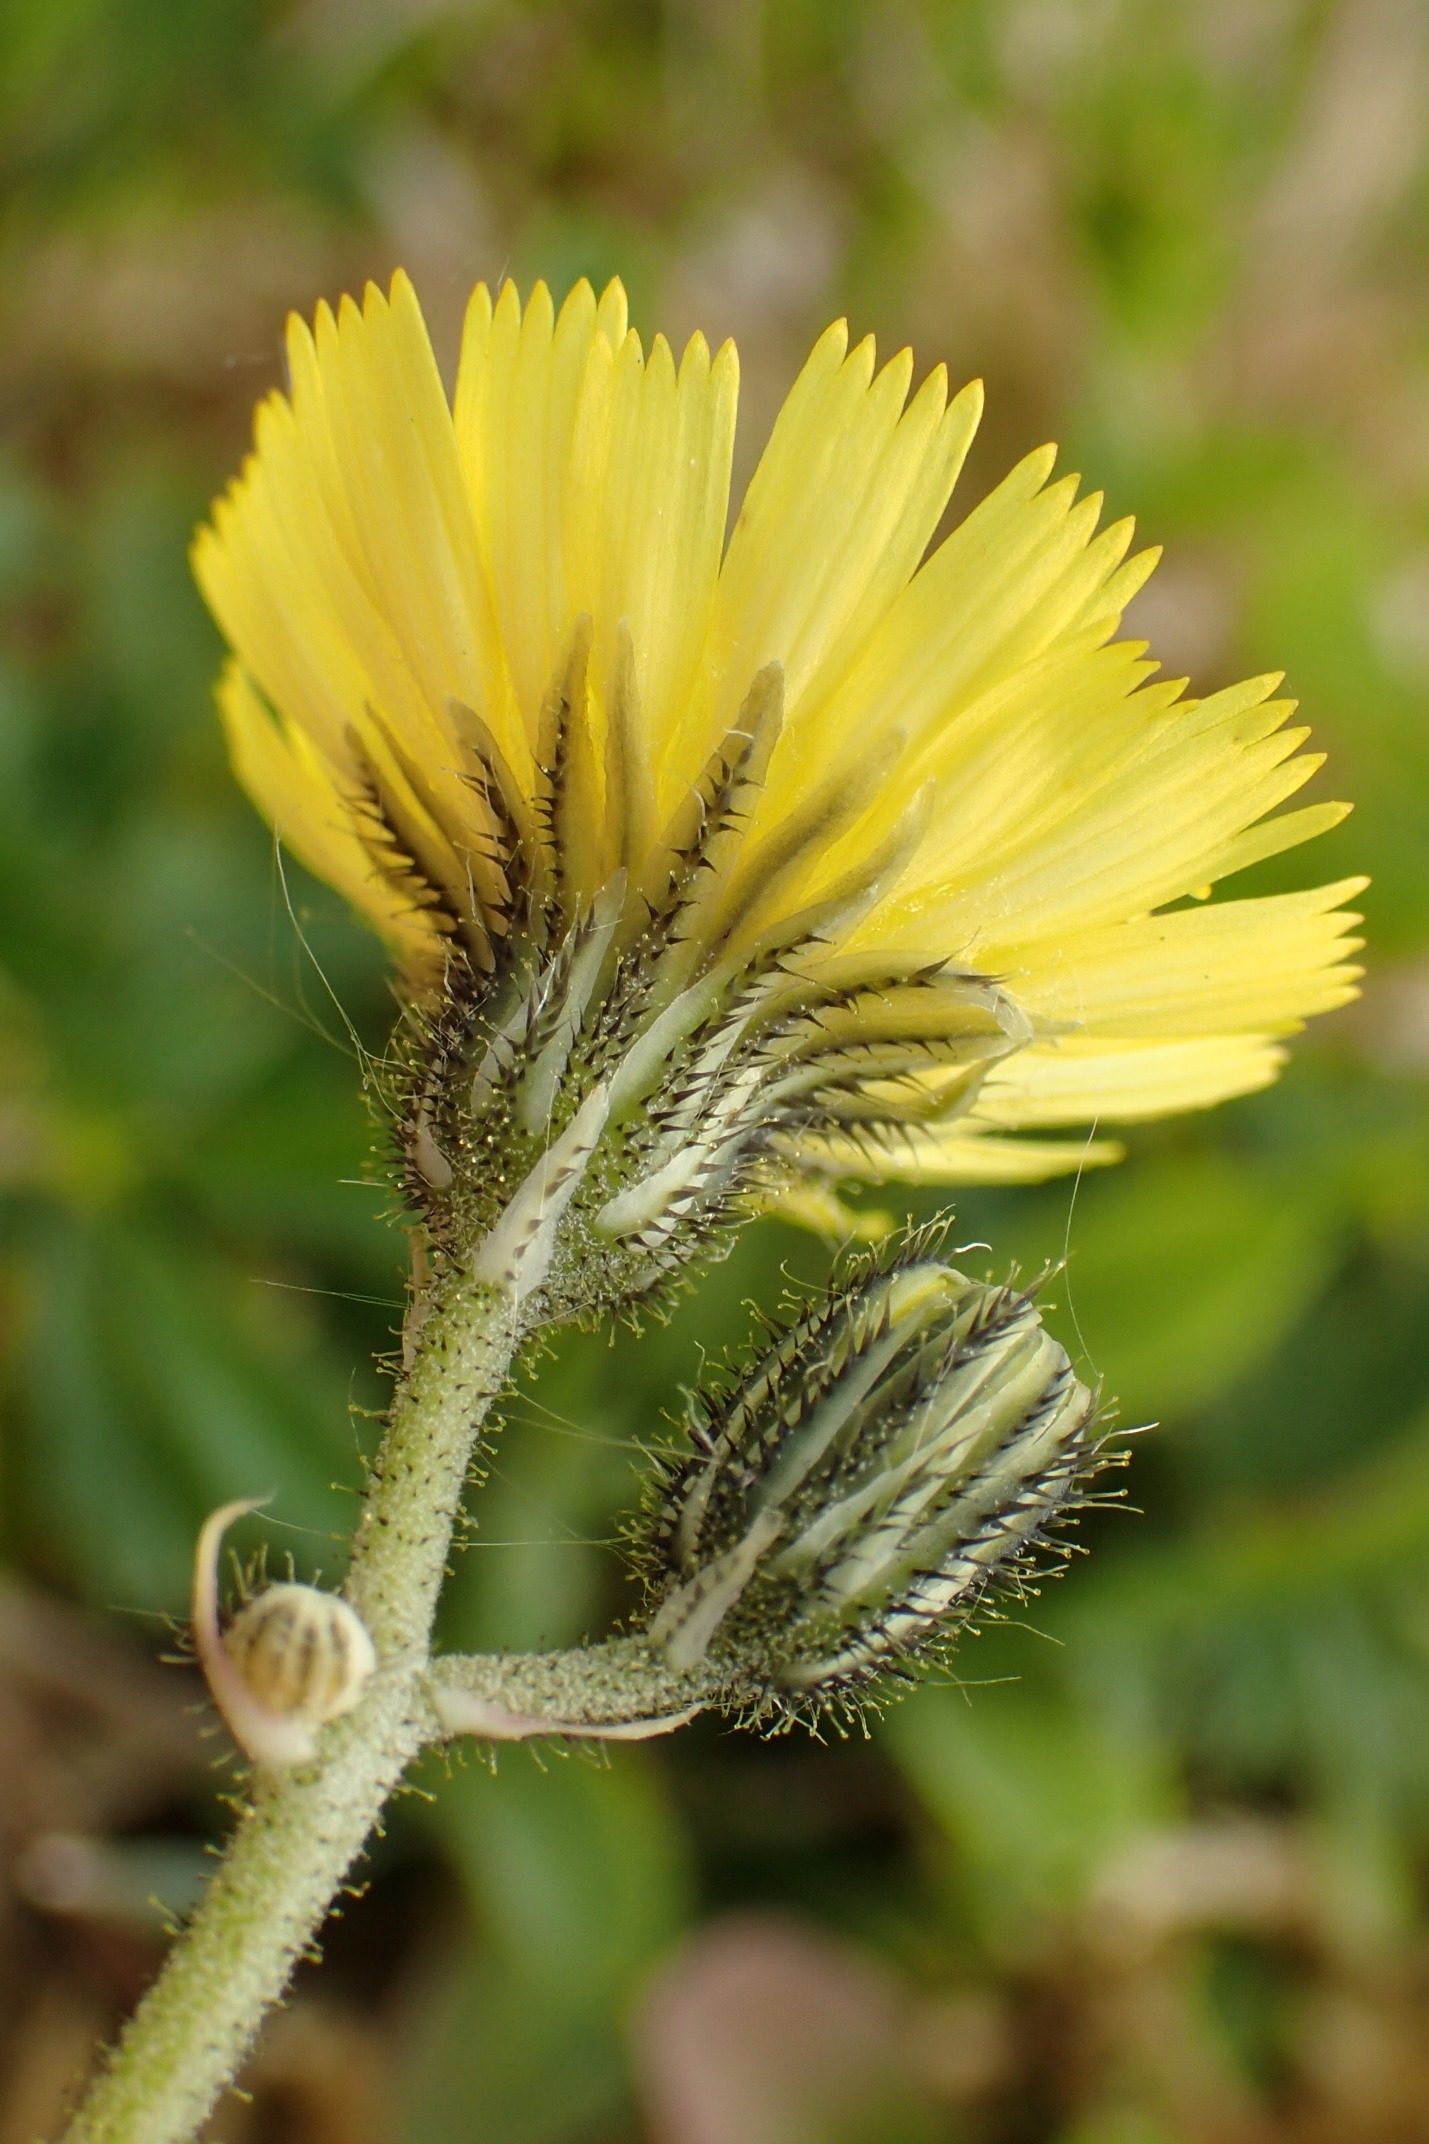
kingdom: Plantae
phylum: Tracheophyta
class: Magnoliopsida
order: Asterales
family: Asteraceae
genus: Pilosella
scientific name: Pilosella lactucella
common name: Lancetbladet høgeurt
